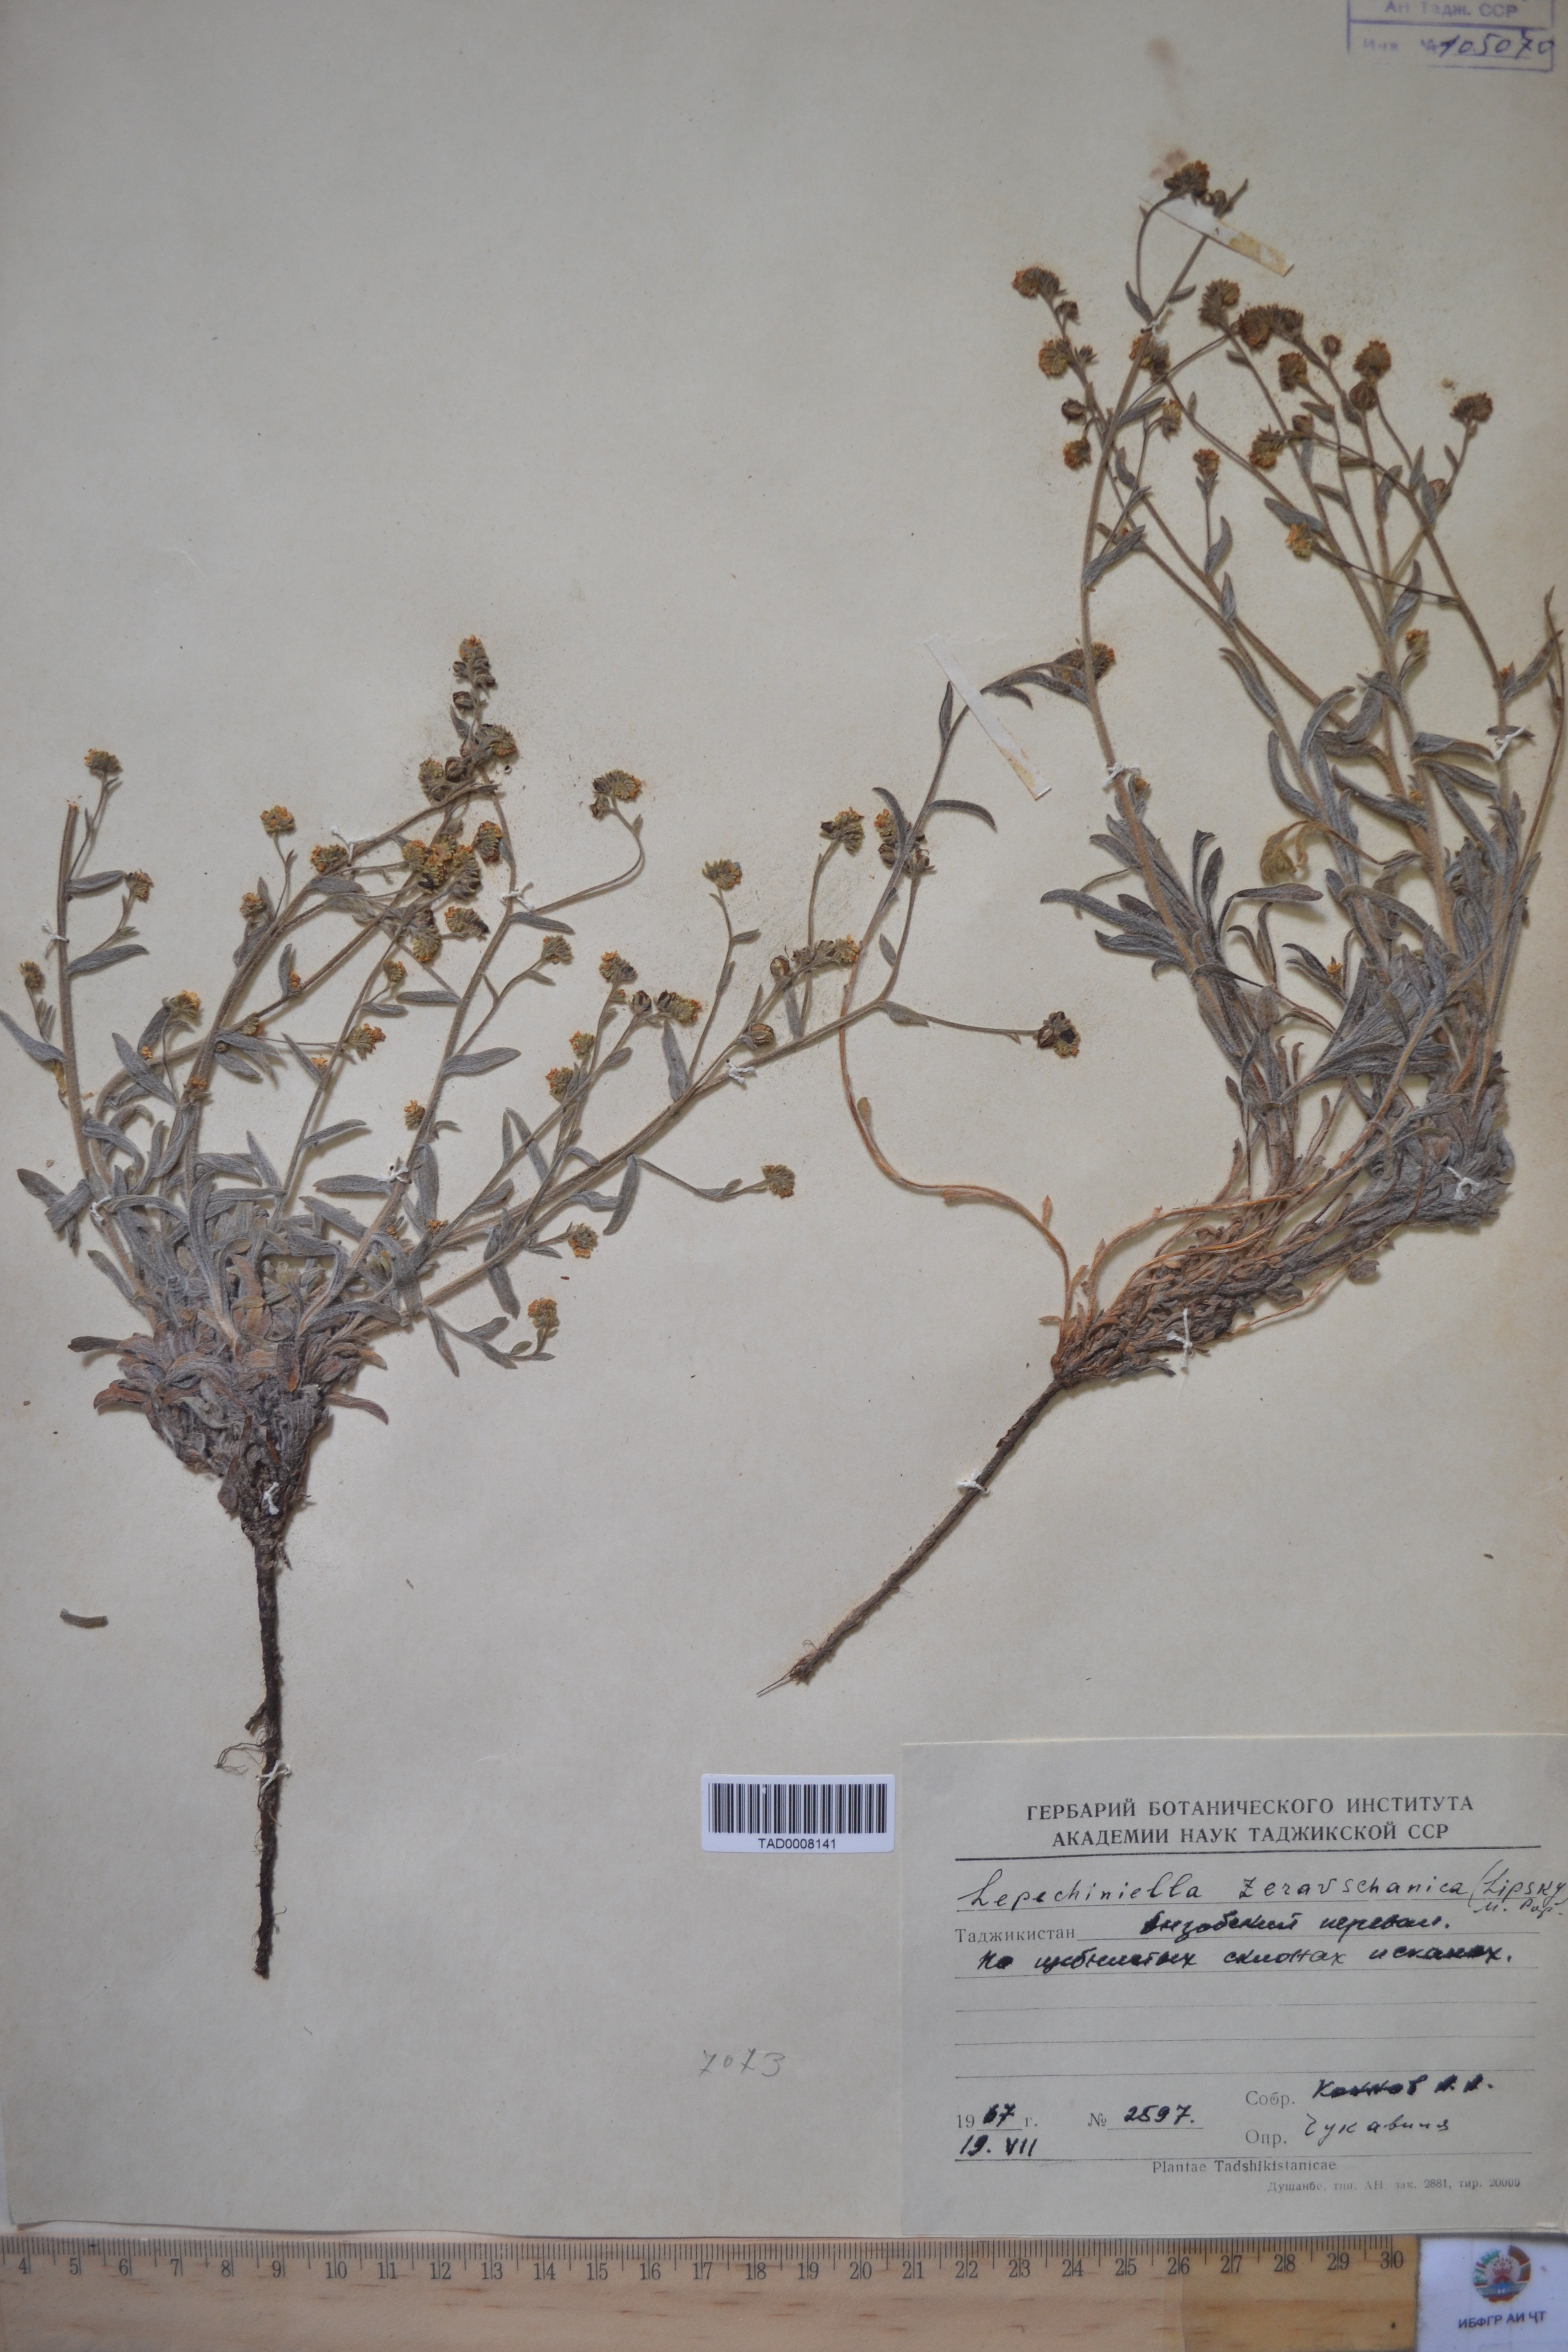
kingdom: Plantae
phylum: Tracheophyta
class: Magnoliopsida
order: Boraginales
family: Boraginaceae
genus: Lepechiniella
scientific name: Lepechiniella seravschanica
